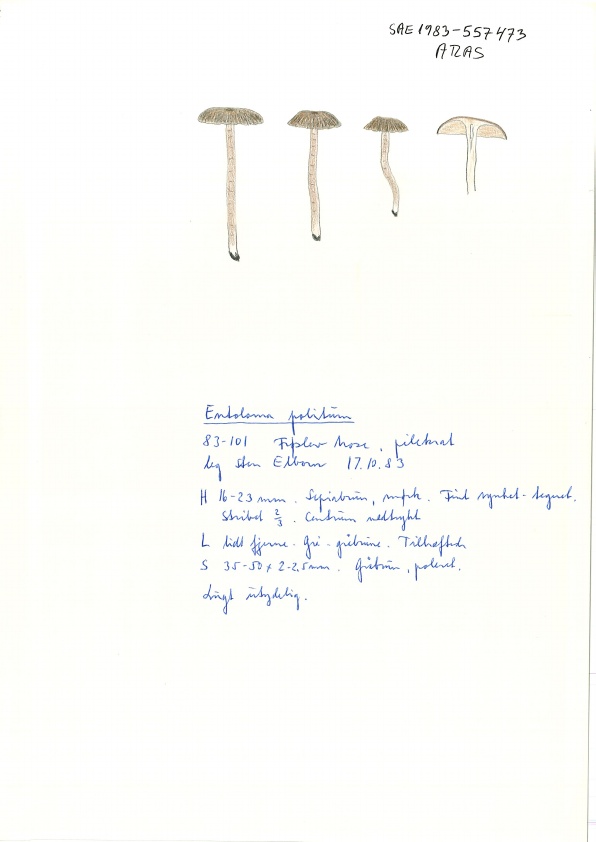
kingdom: Fungi
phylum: Basidiomycota
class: Agaricomycetes
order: Agaricales
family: Entolomataceae
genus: Entoloma
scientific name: Entoloma politum
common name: poleret rødblad
